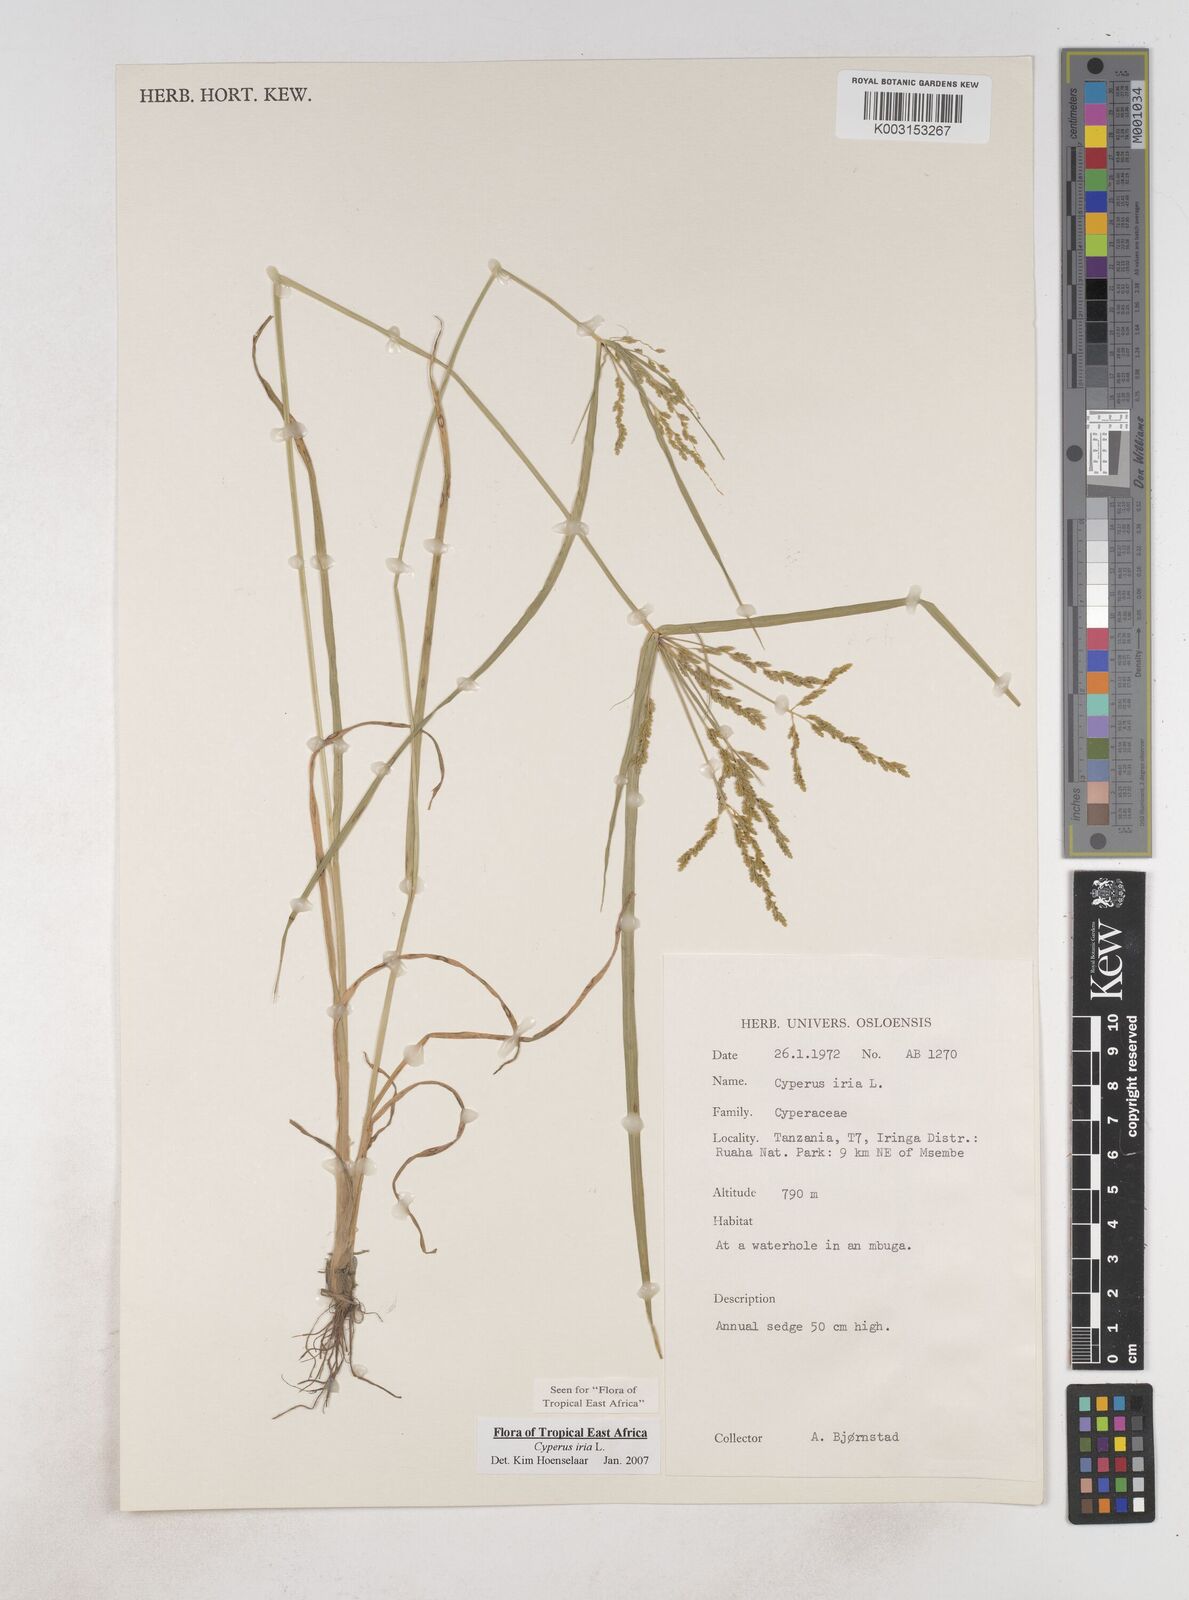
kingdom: Plantae
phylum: Tracheophyta
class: Liliopsida
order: Poales
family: Cyperaceae
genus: Cyperus
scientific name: Cyperus iria
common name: Ricefield flatsedge
